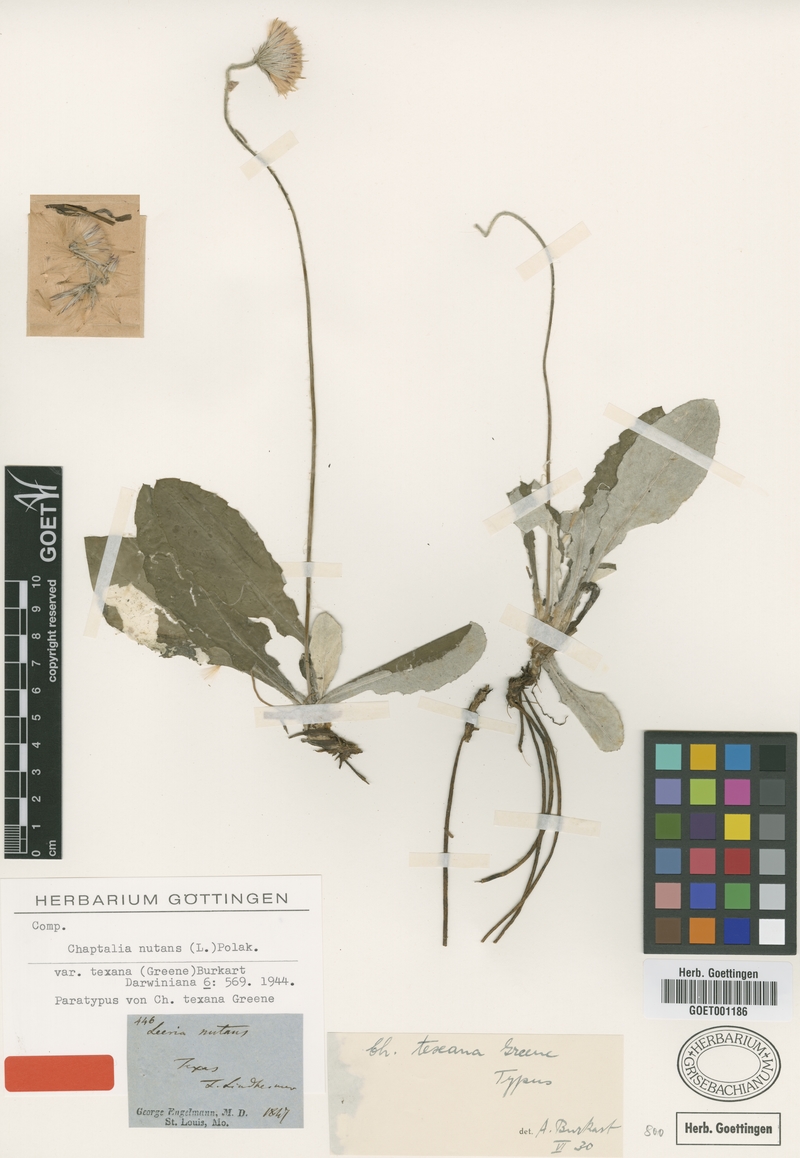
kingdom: Plantae
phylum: Tracheophyta
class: Magnoliopsida
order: Asterales
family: Asteraceae
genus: Chaptalia
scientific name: Chaptalia texana
